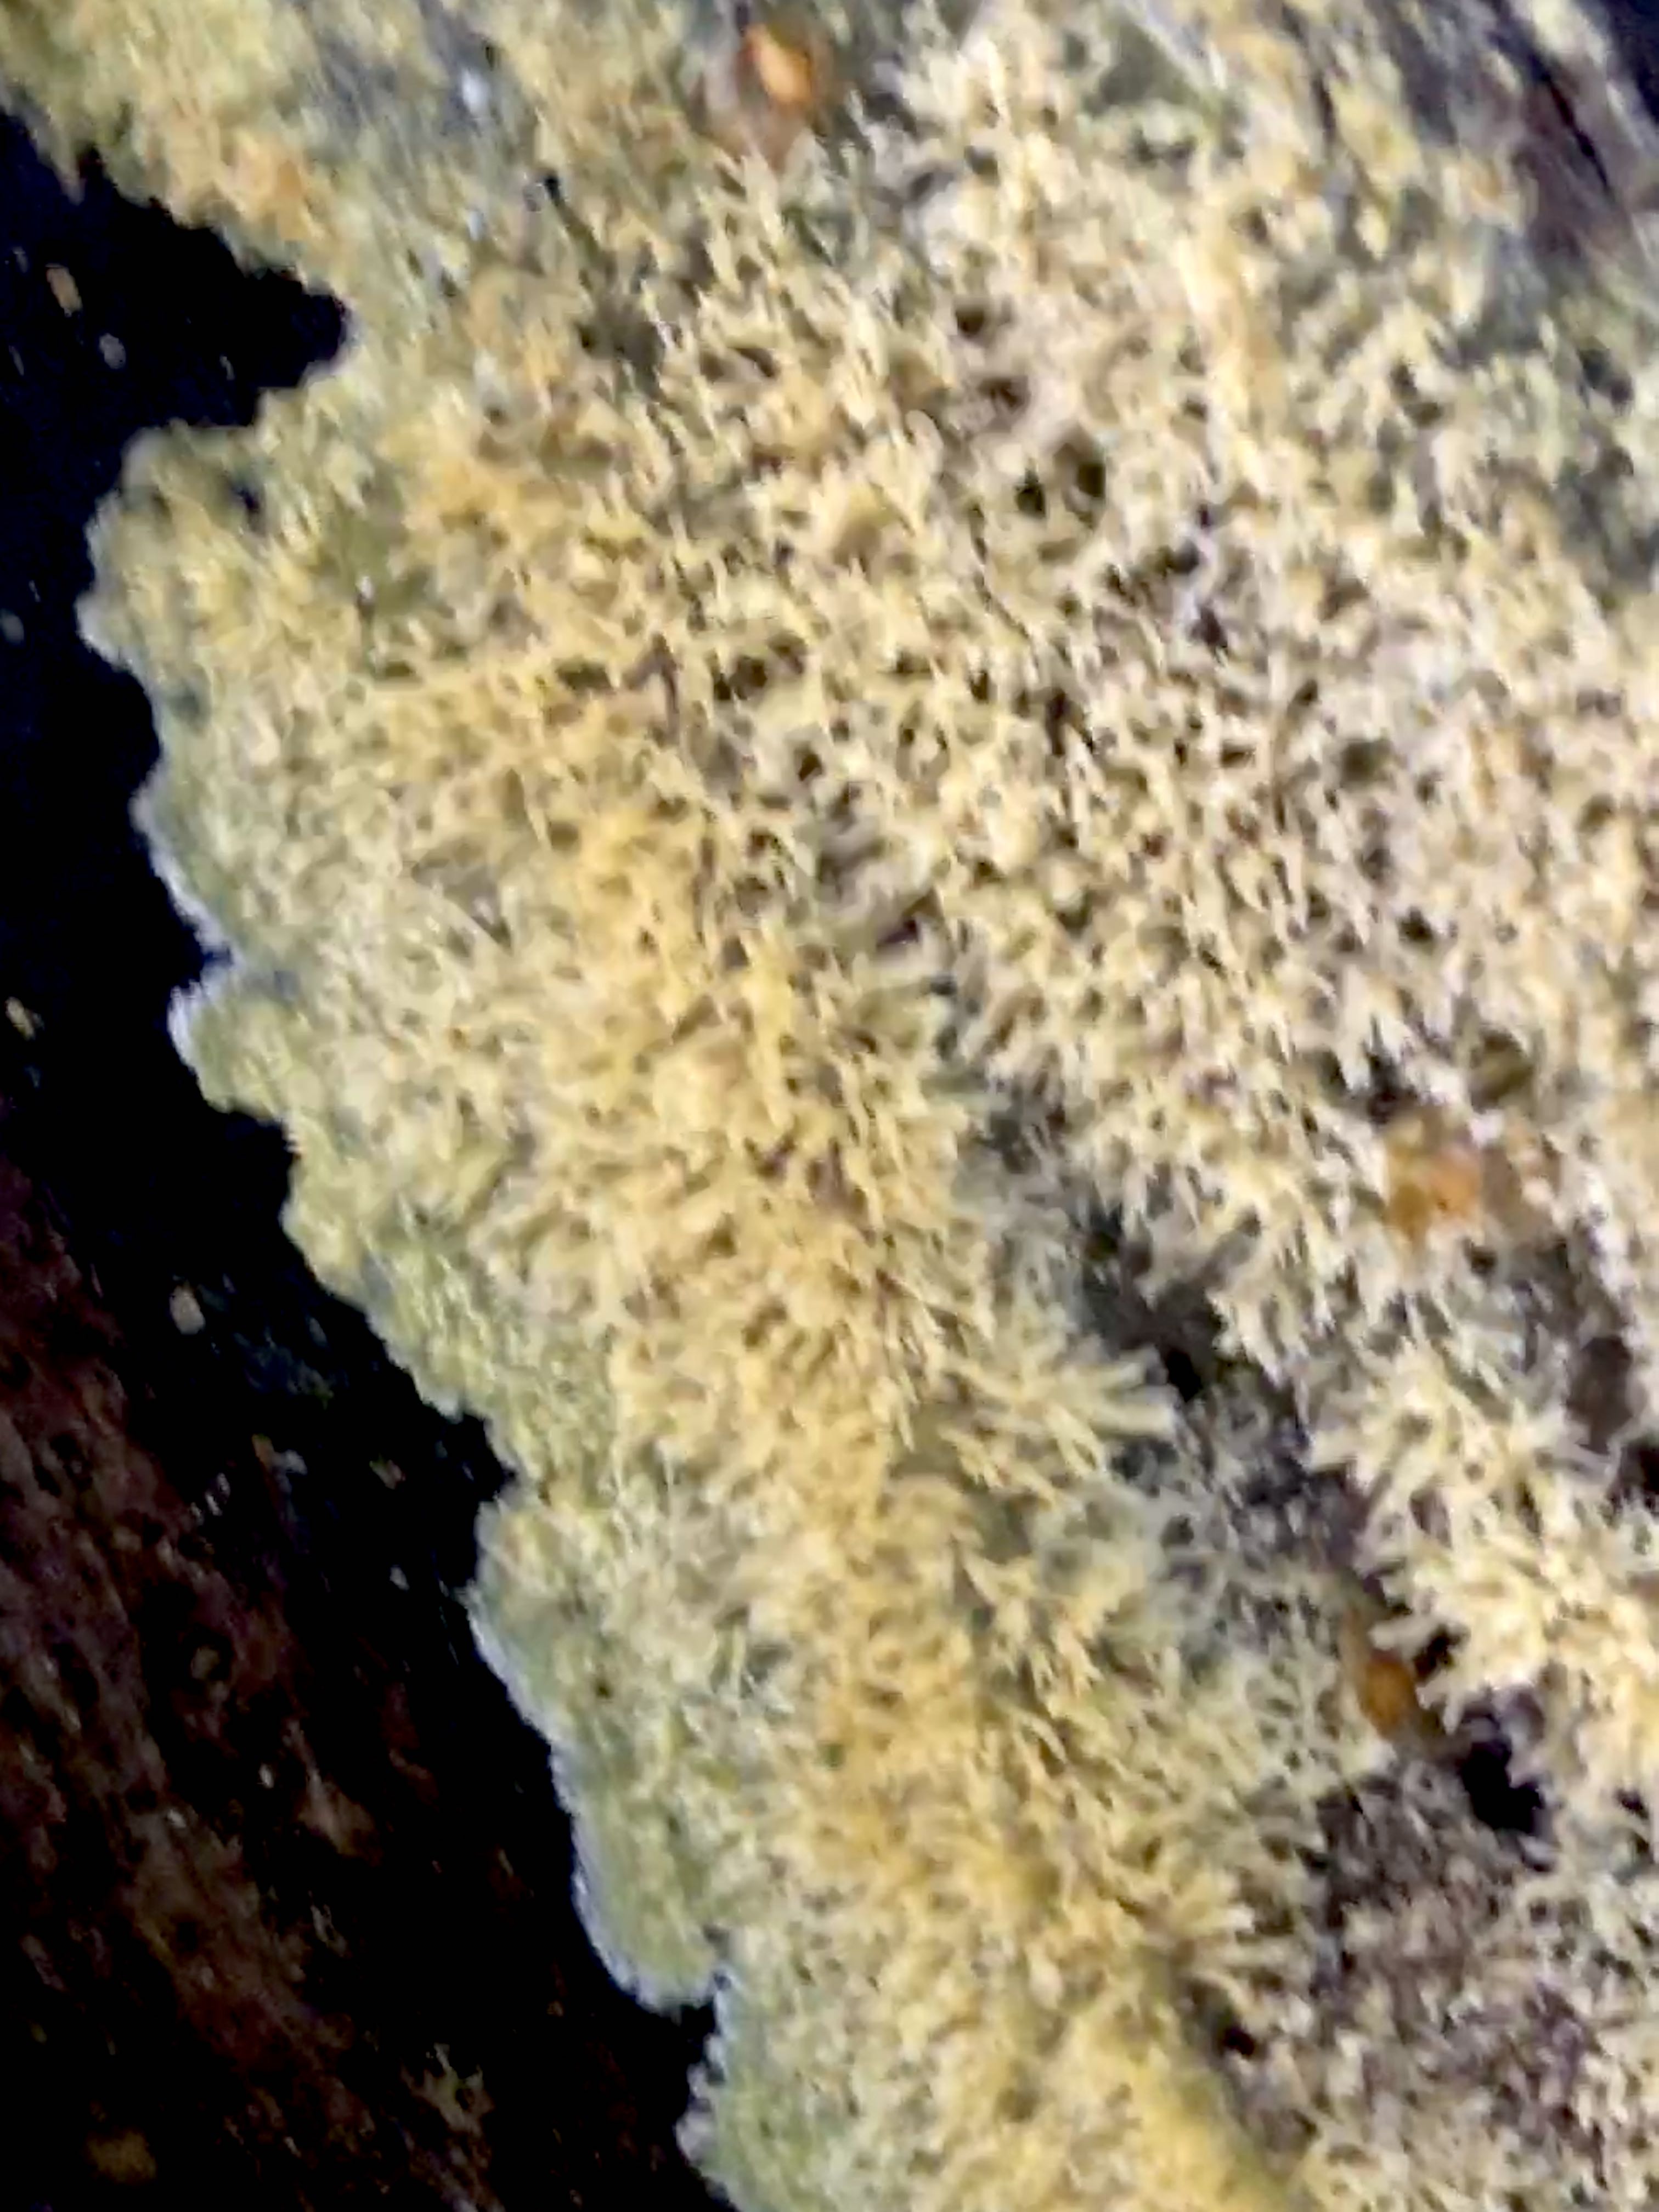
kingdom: Fungi
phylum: Basidiomycota
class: Agaricomycetes
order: Polyporales
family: Meruliaceae
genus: Mycoacia
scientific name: Mycoacia uda
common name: citrongul vokspig
